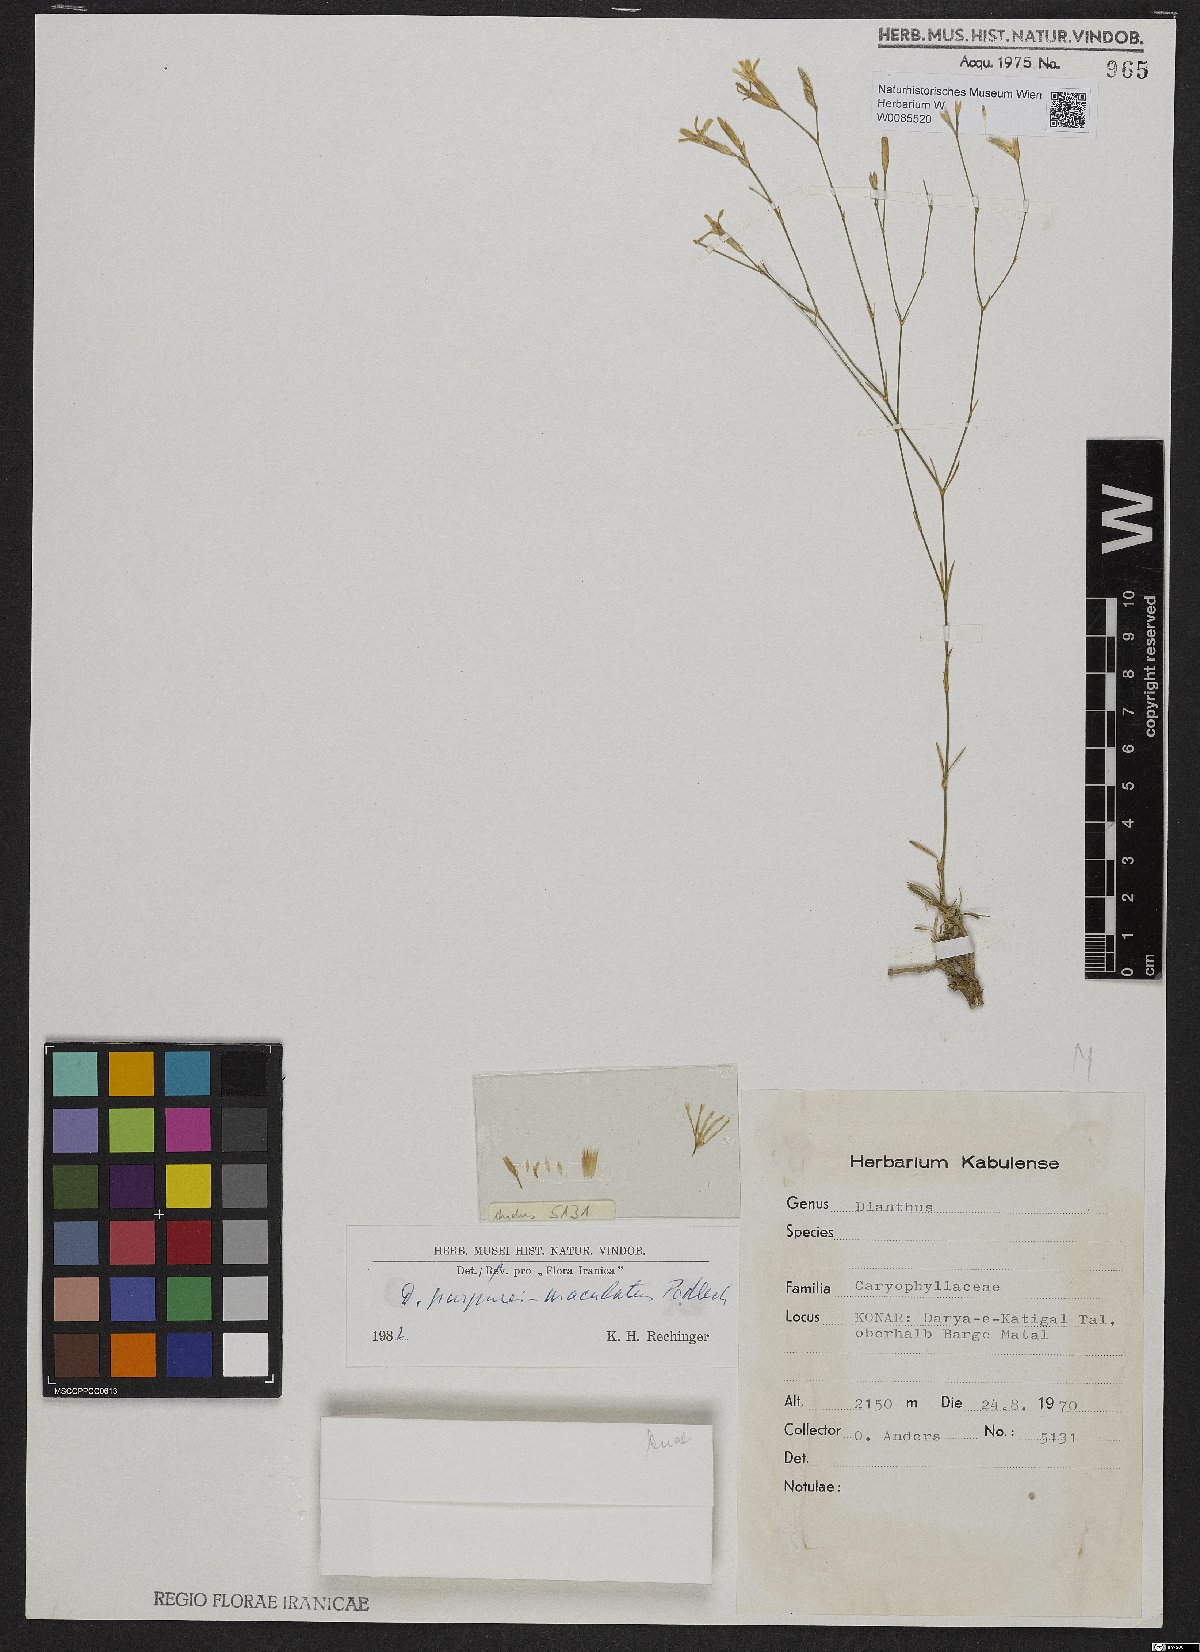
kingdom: Plantae
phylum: Tracheophyta
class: Magnoliopsida
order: Caryophyllales
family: Caryophyllaceae
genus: Dianthus
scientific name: Dianthus purpureimaculatus
